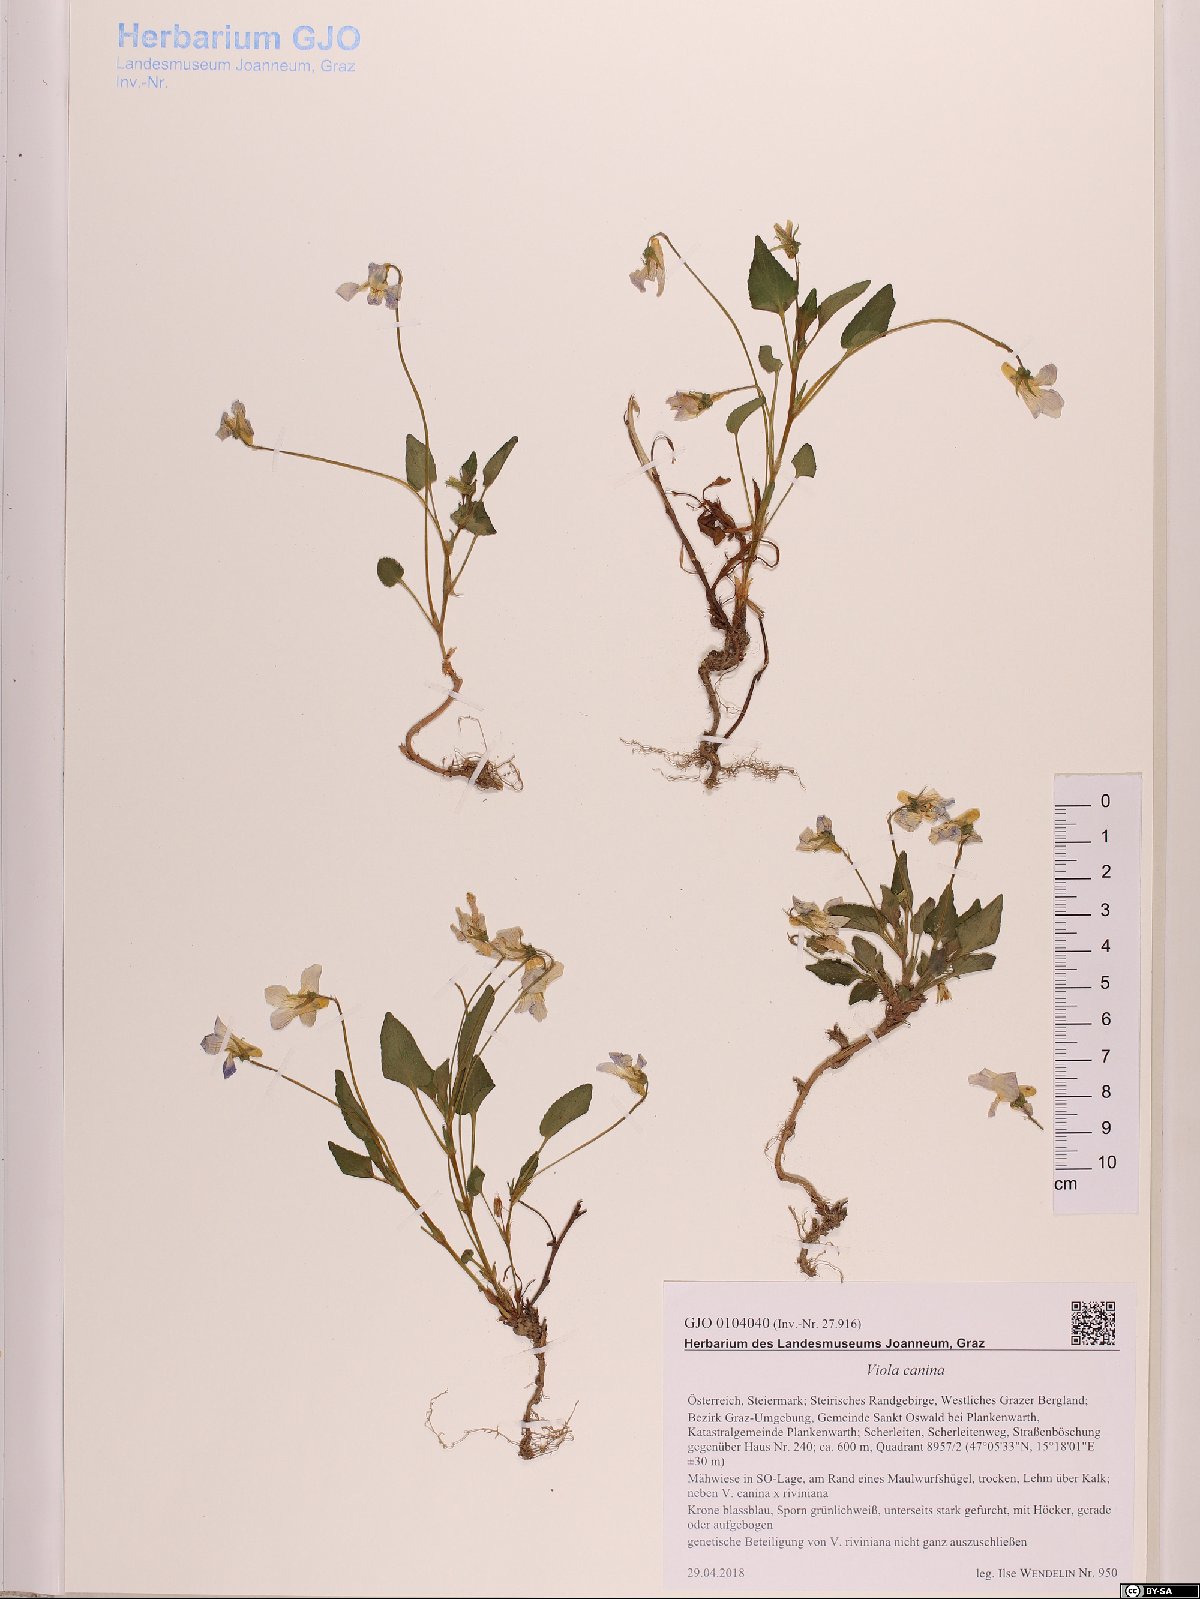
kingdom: Plantae
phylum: Tracheophyta
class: Magnoliopsida
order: Malpighiales
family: Violaceae
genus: Viola
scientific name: Viola canina
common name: Heath dog-violet
